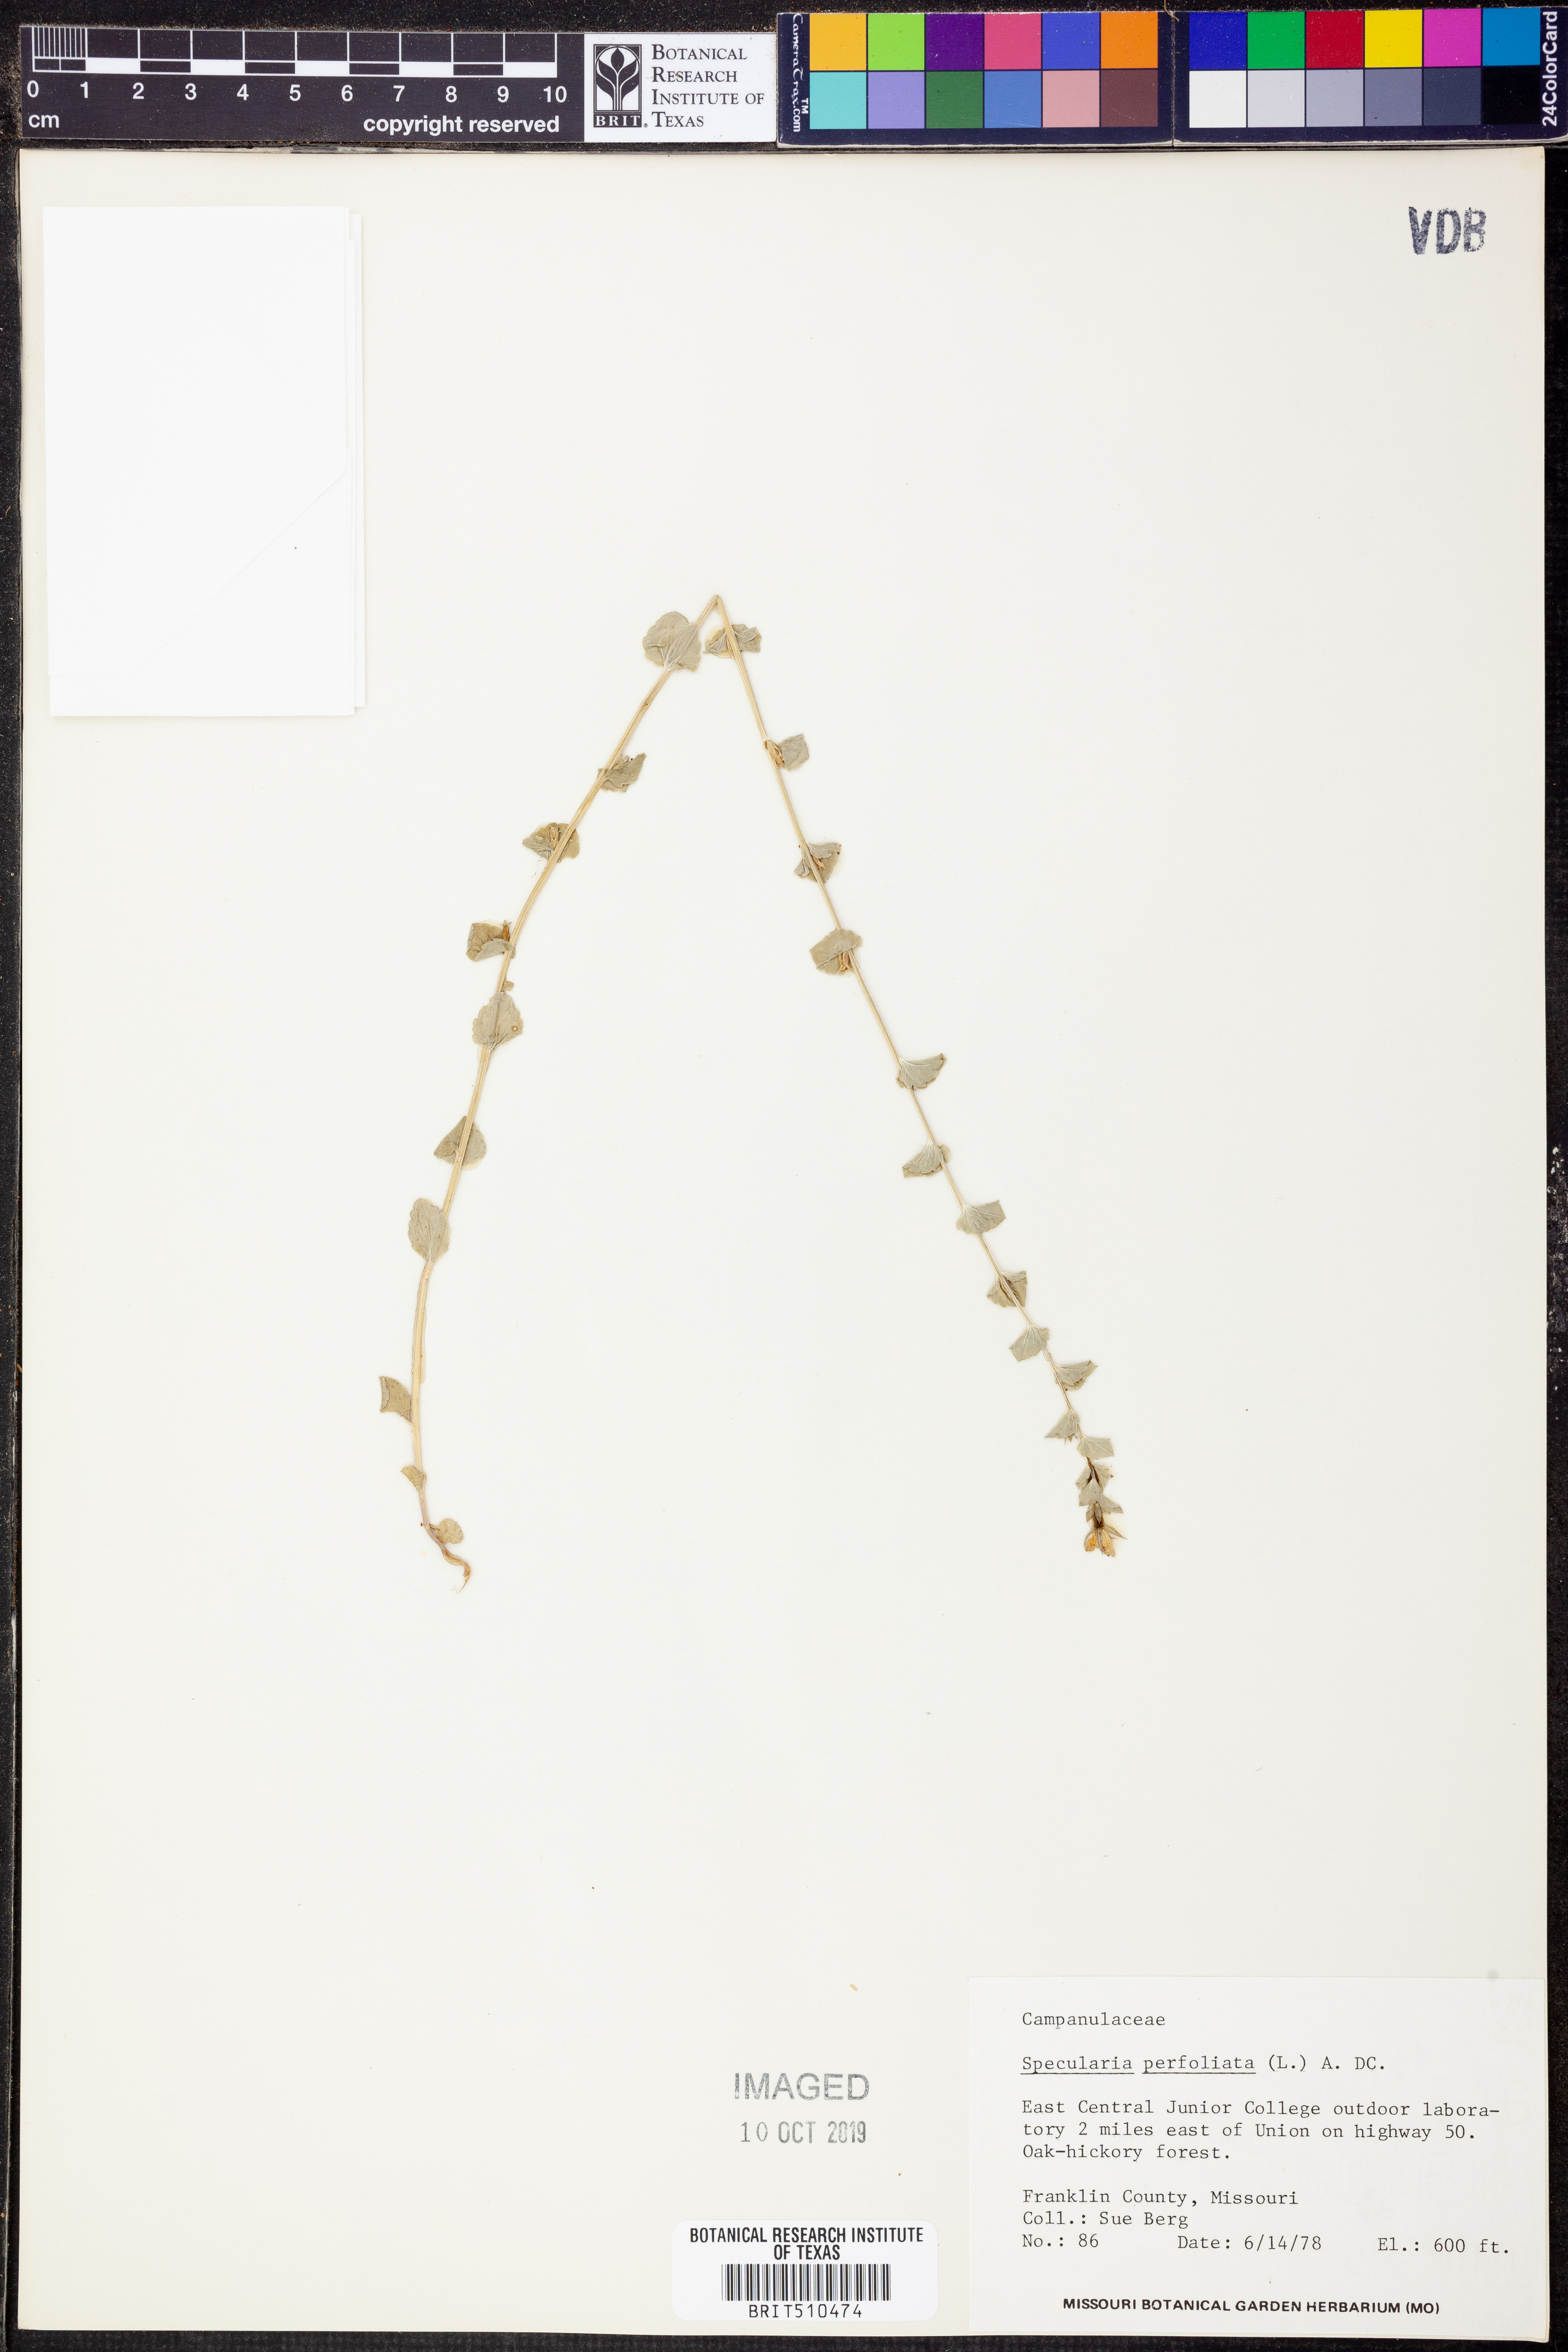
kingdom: Plantae
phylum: Tracheophyta
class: Magnoliopsida
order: Asterales
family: Campanulaceae
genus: Triodanis
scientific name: Triodanis perfoliata
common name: Clasping venus' looking-glass
